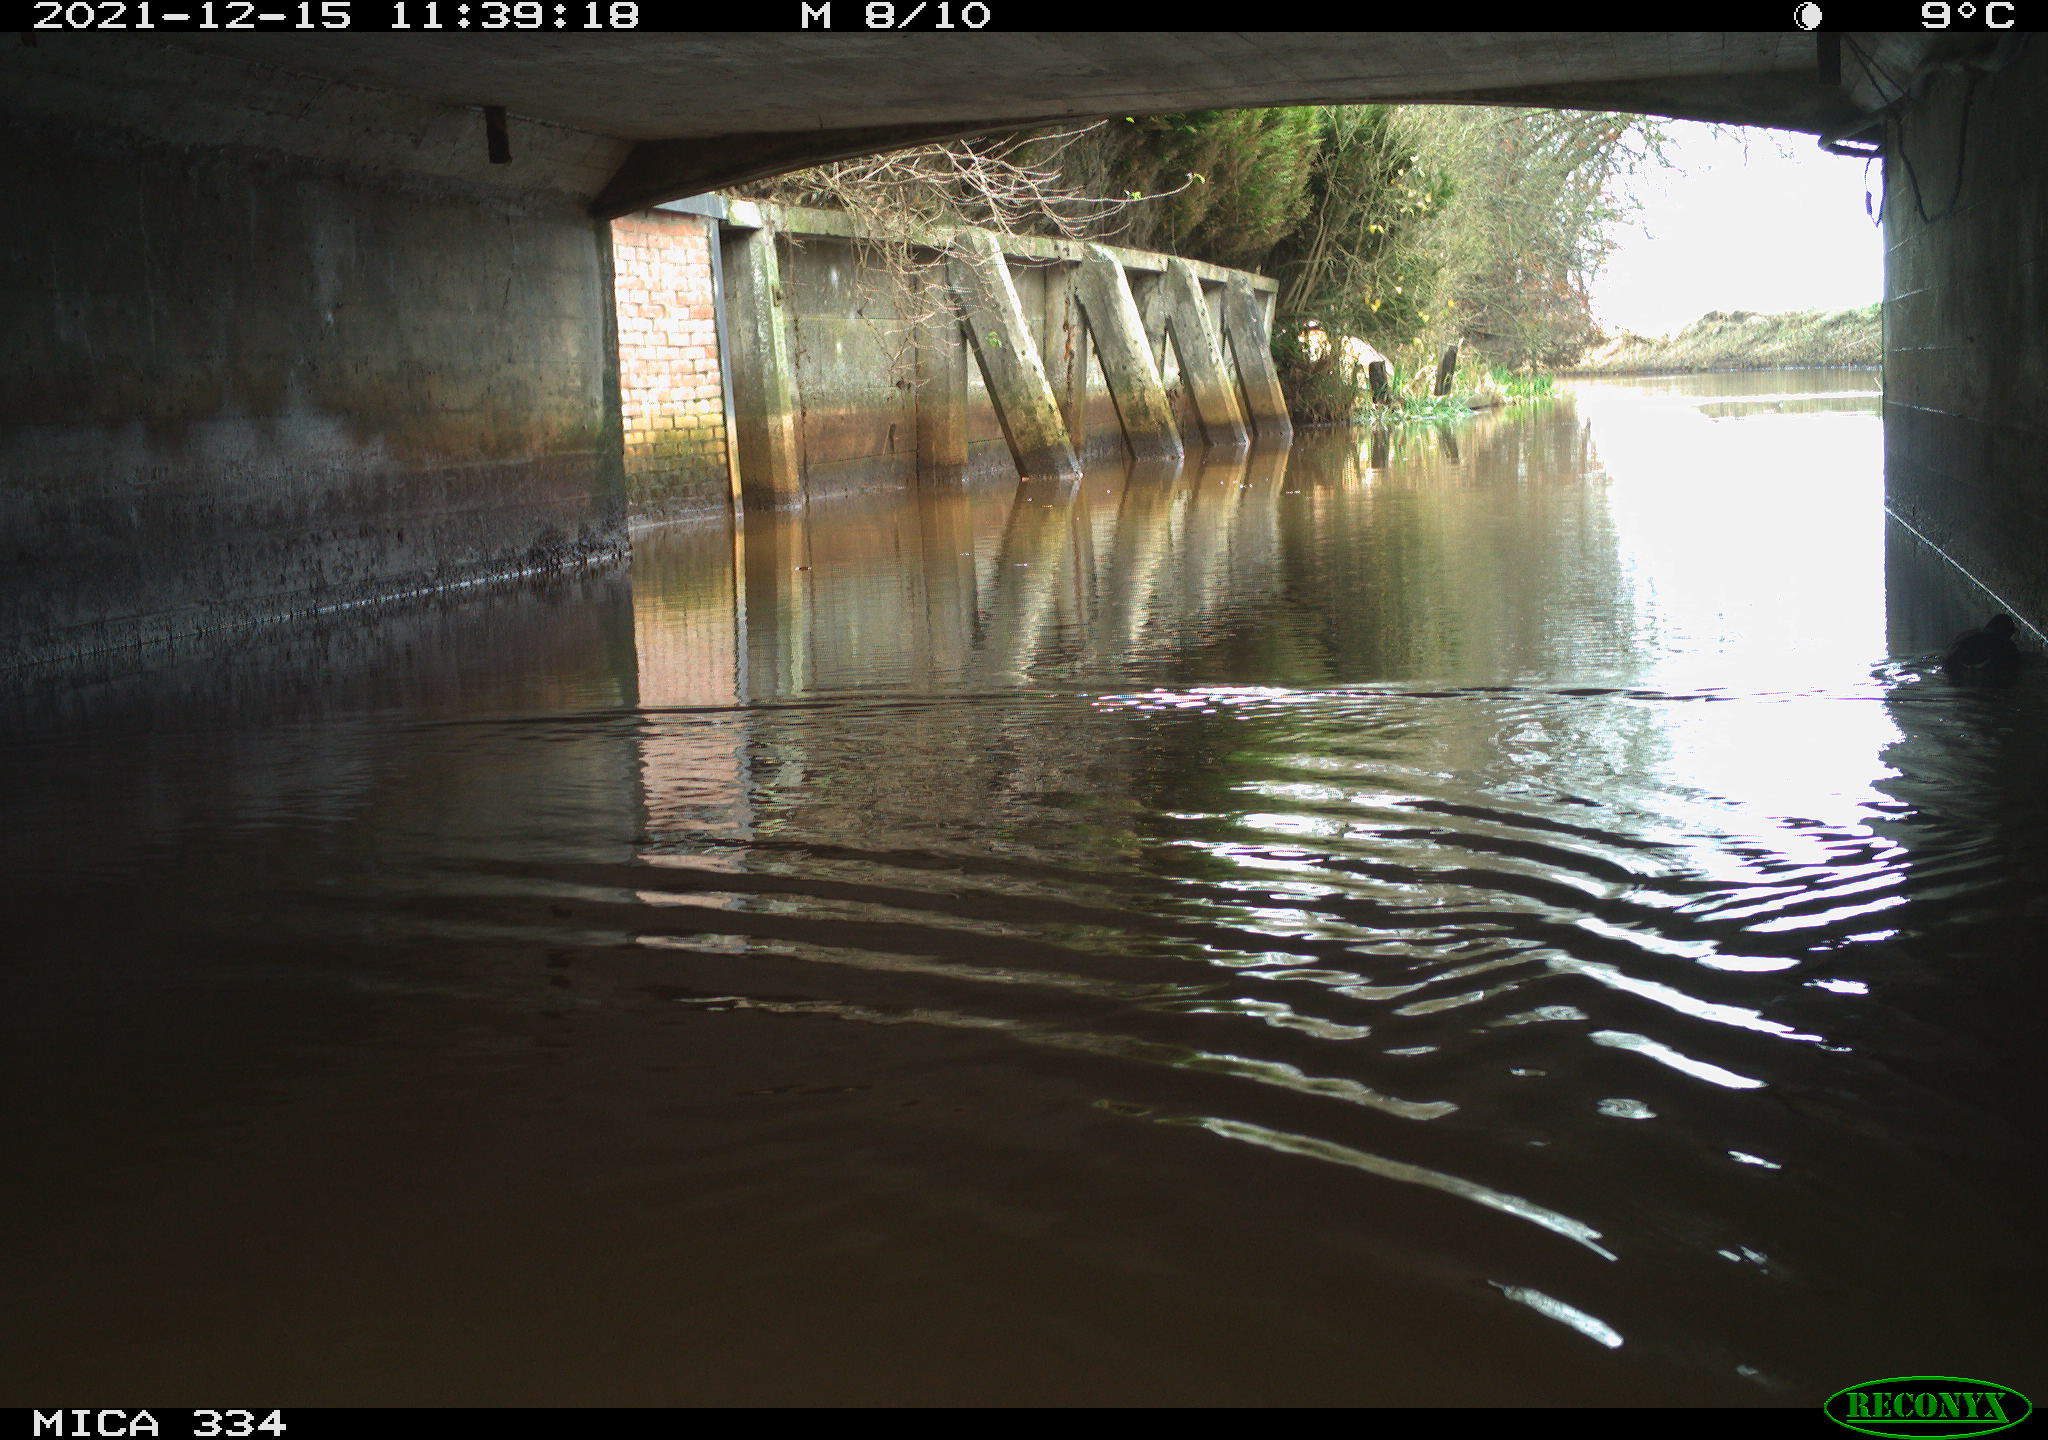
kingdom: Animalia
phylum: Chordata
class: Aves
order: Gruiformes
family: Rallidae
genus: Fulica
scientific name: Fulica atra
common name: Eurasian coot
